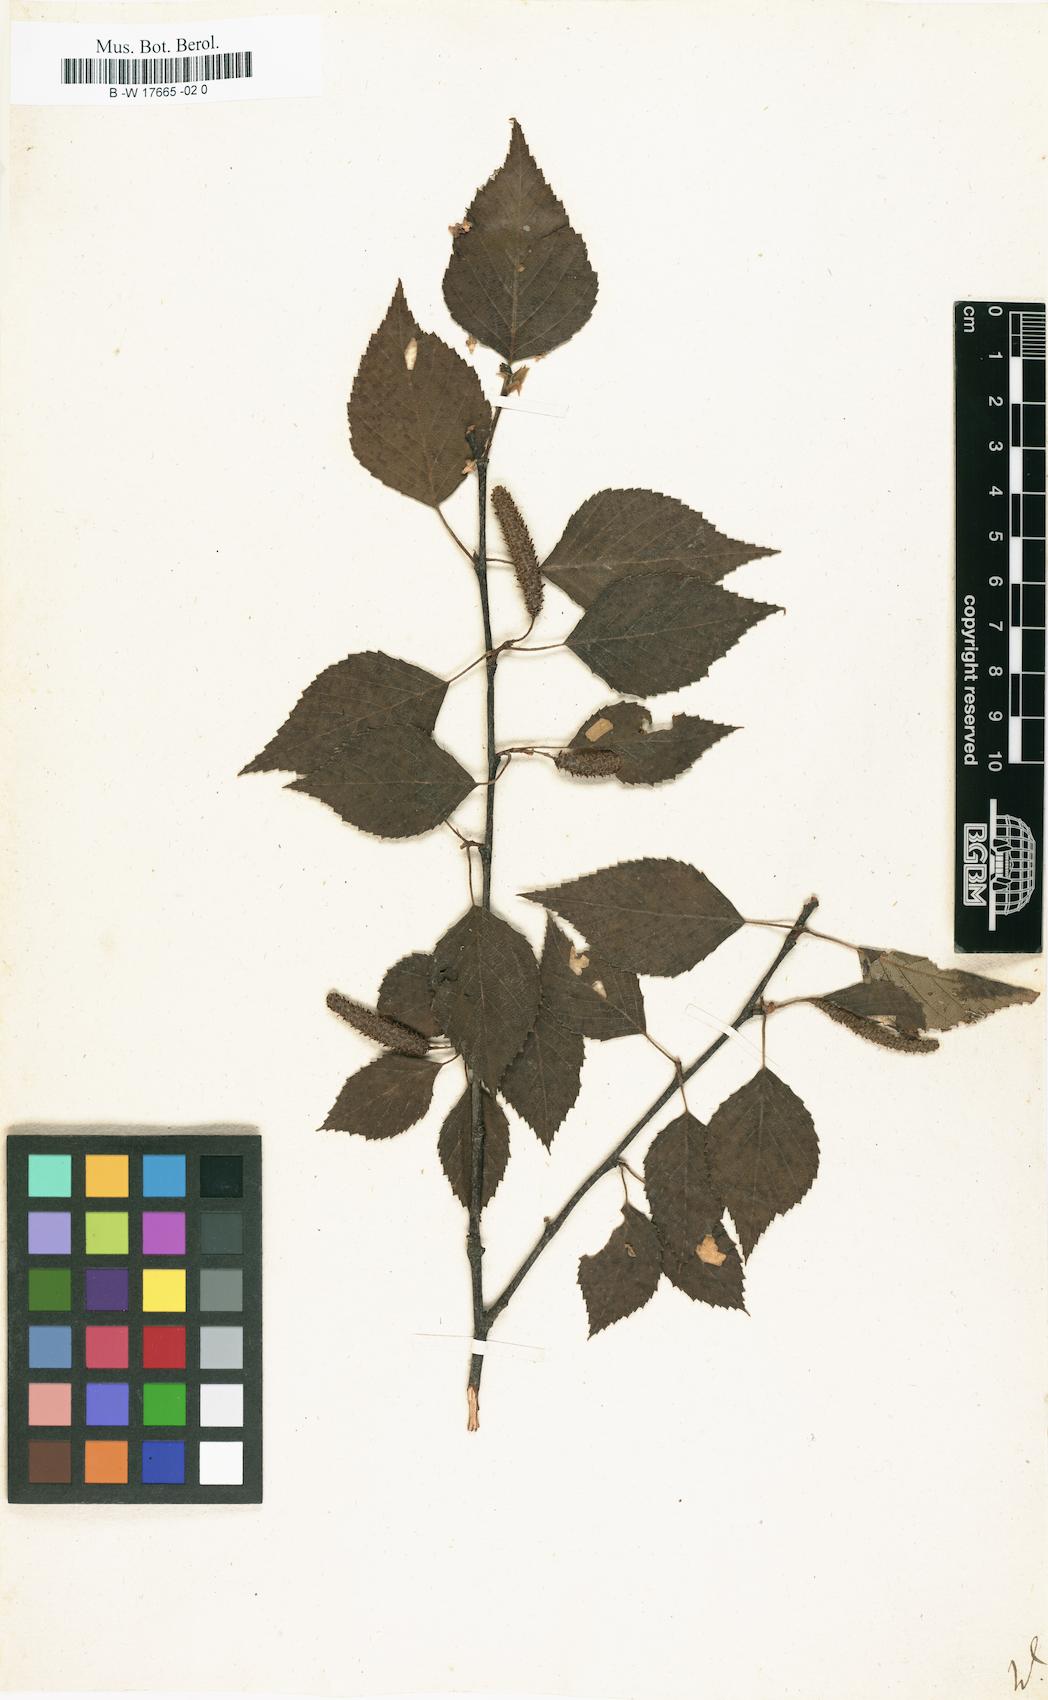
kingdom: Plantae
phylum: Tracheophyta
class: Magnoliopsida
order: Fagales
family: Betulaceae
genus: Betula
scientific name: Betula
